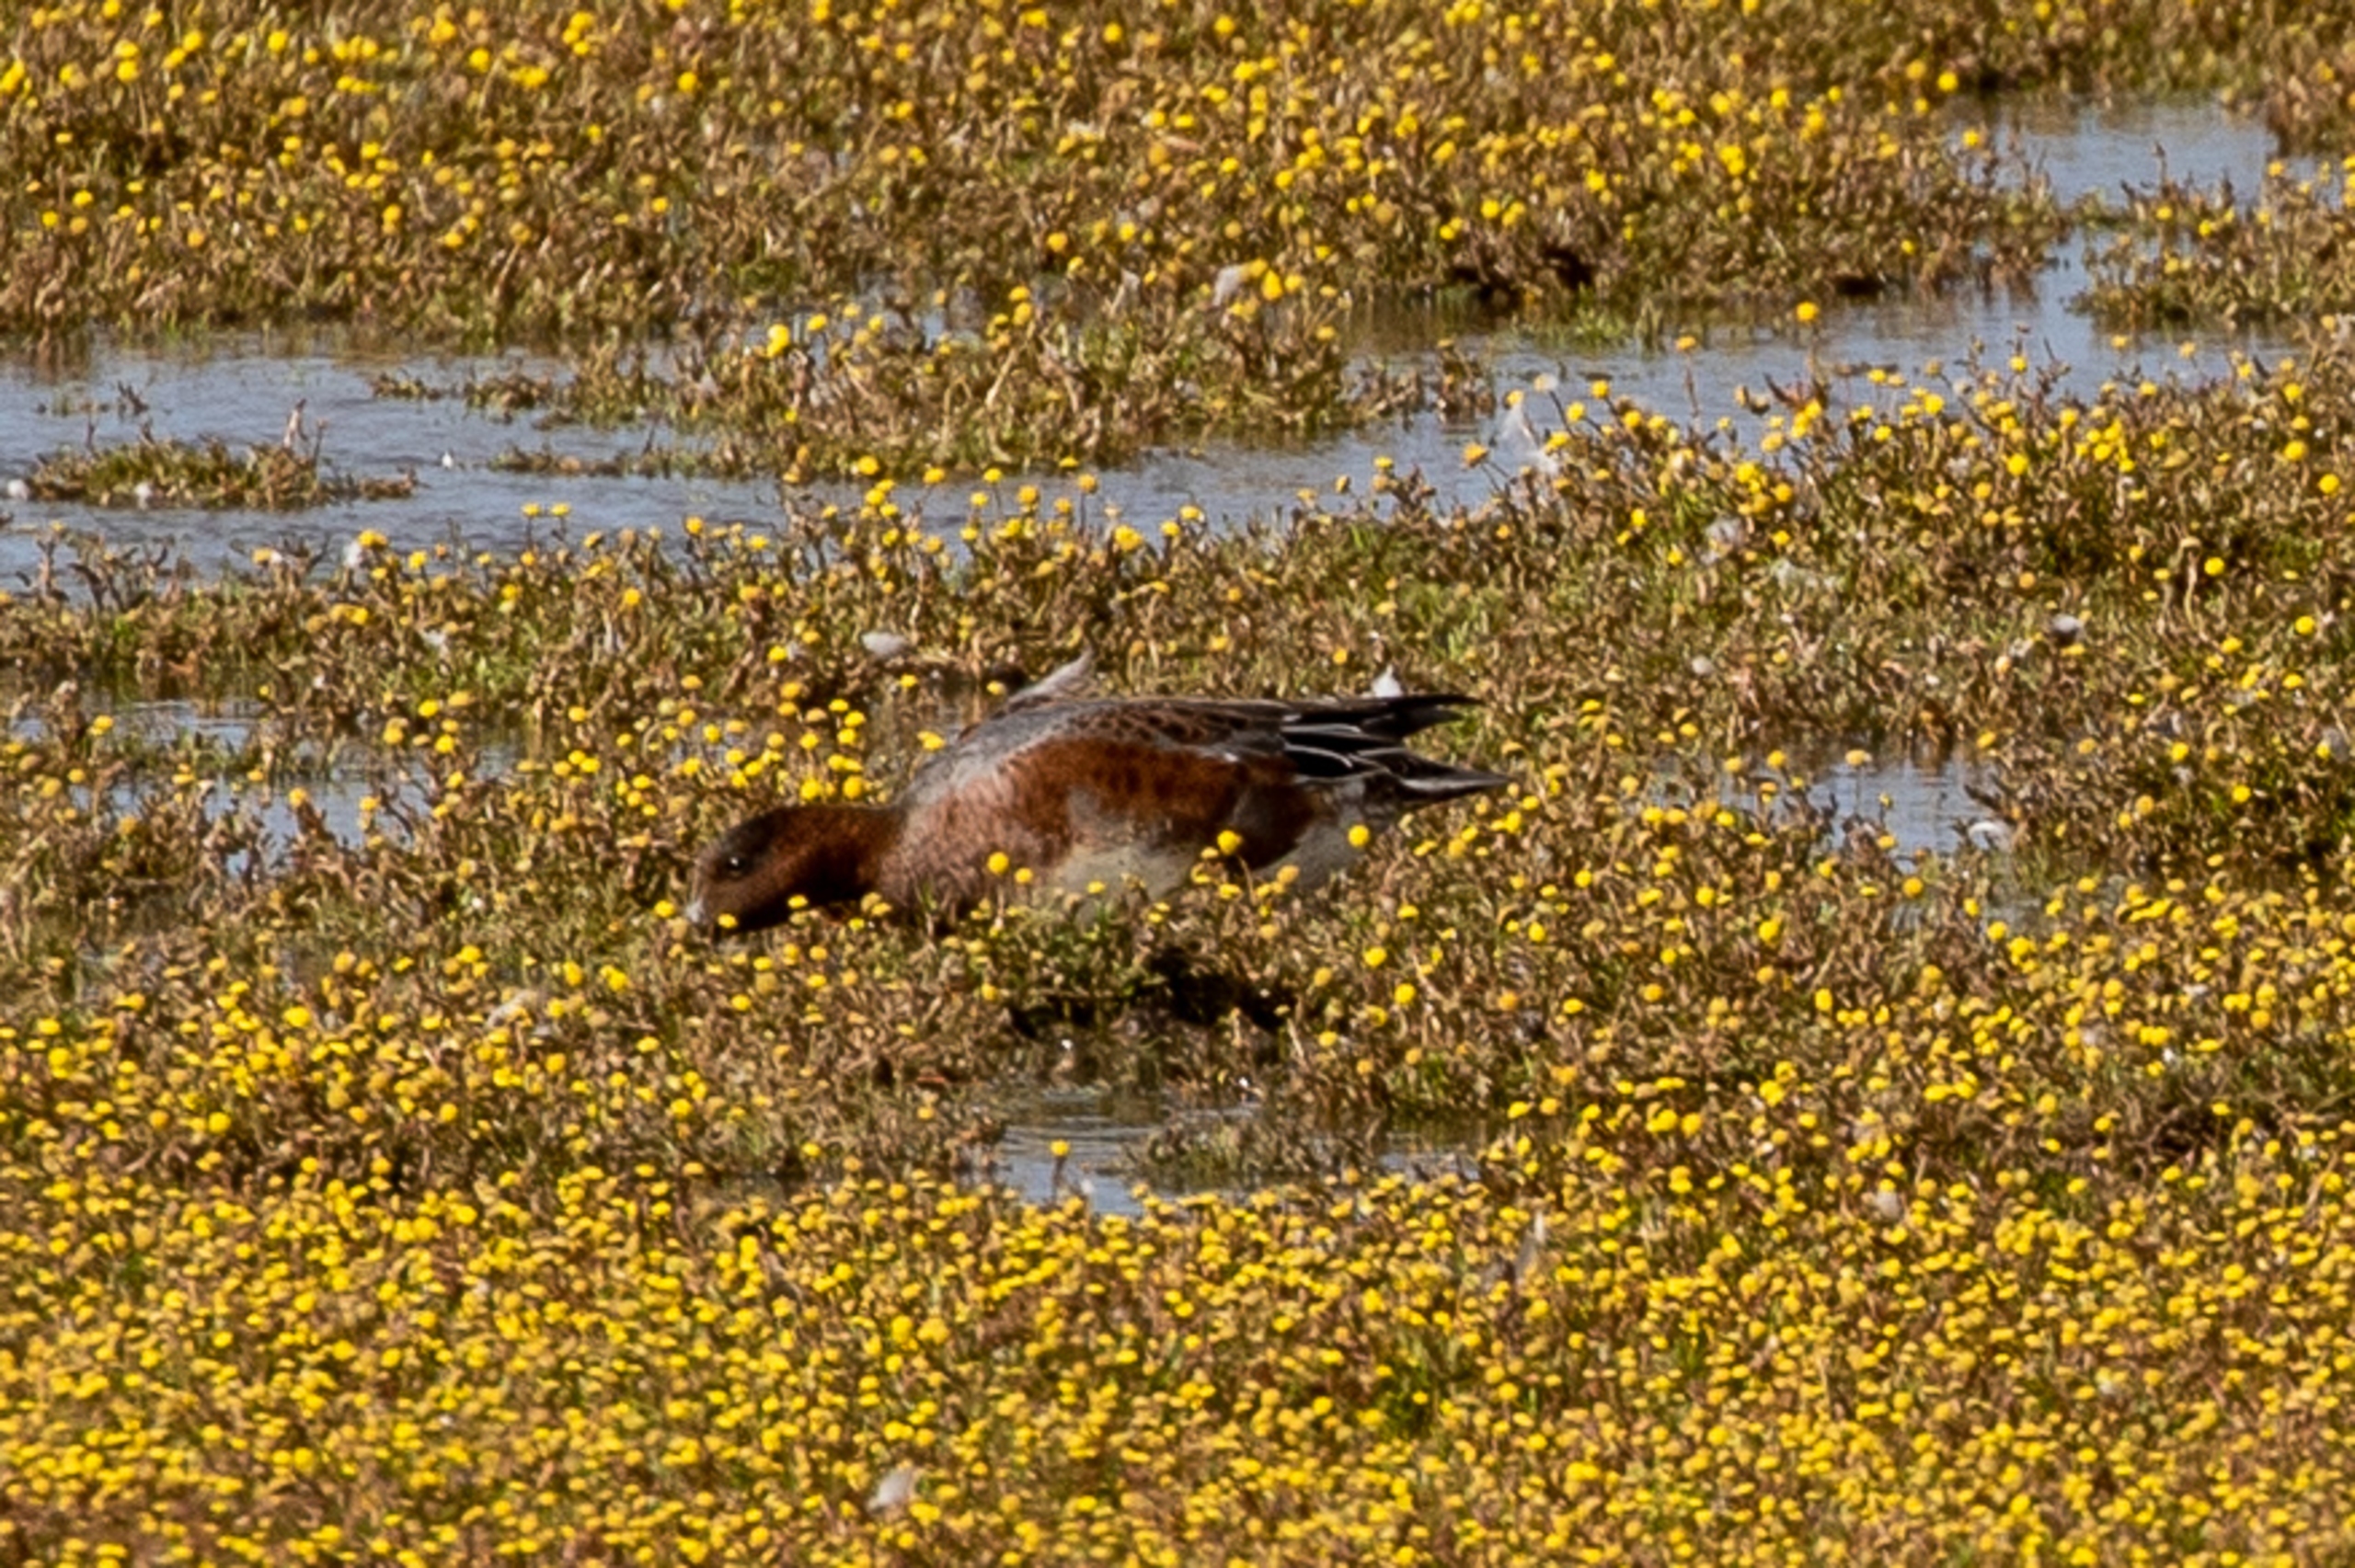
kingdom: Animalia
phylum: Chordata
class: Aves
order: Anseriformes
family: Anatidae
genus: Mareca
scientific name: Mareca penelope
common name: Pibeand
